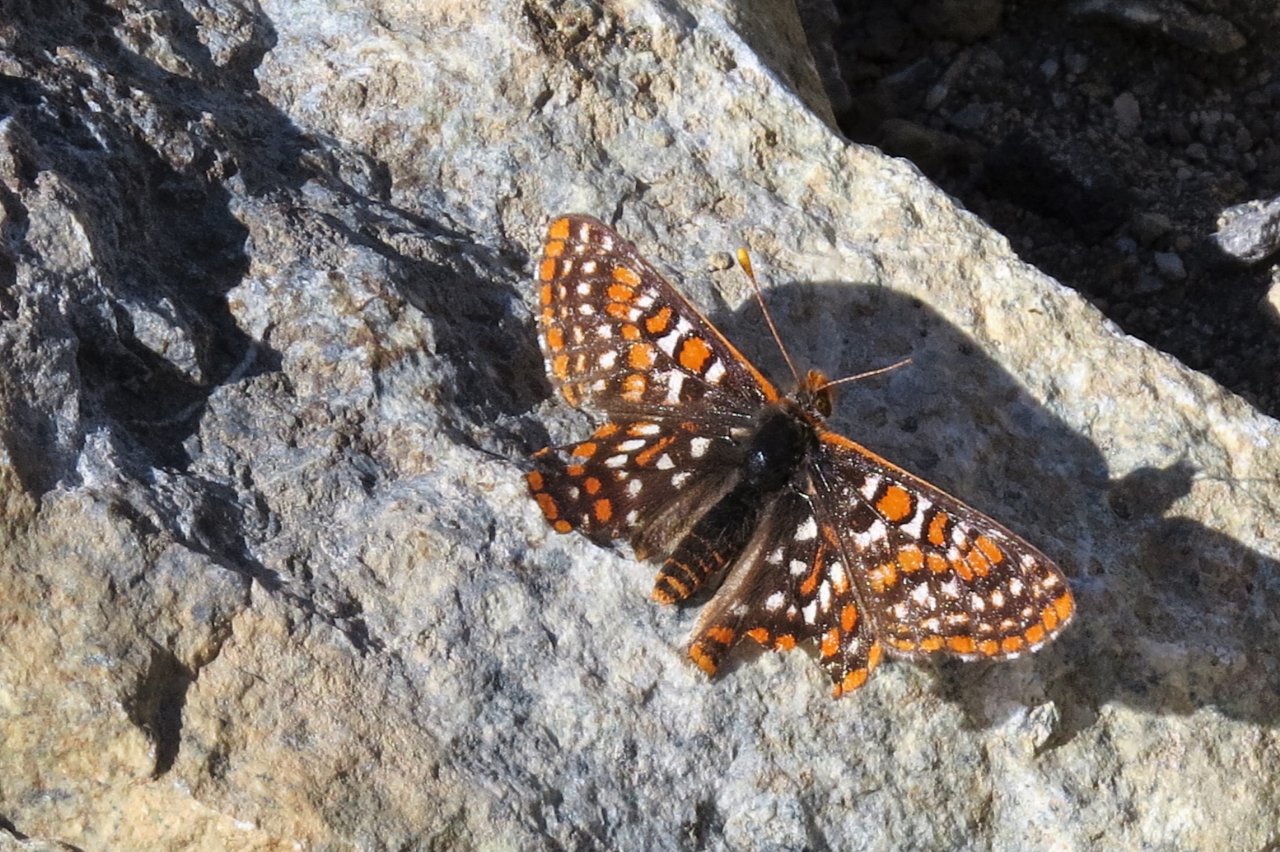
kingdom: Animalia
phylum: Arthropoda
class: Insecta
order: Lepidoptera
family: Nymphalidae
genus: Occidryas
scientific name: Occidryas editha
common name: Edith's Checkerspot
